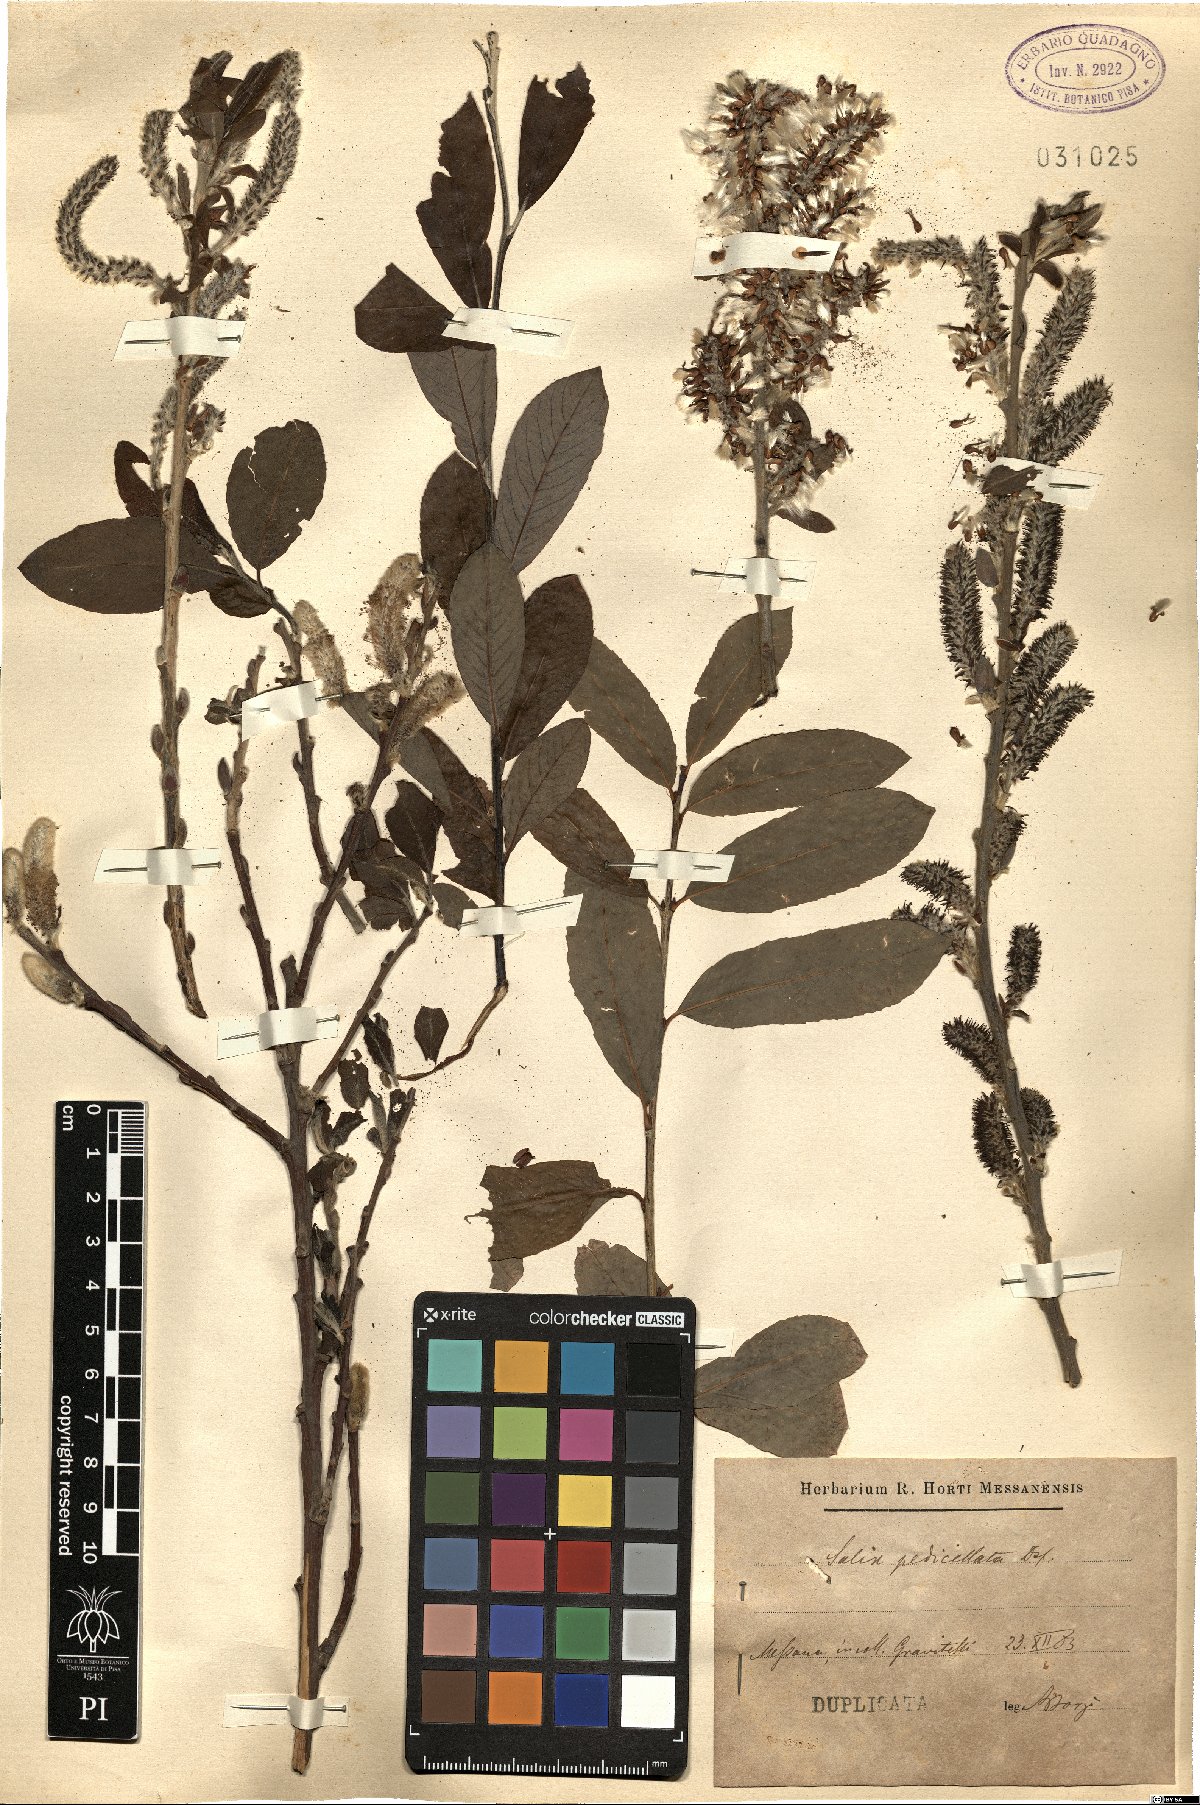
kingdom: Plantae
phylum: Tracheophyta
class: Magnoliopsida
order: Malpighiales
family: Salicaceae
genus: Salix
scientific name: Salix pedicellata
